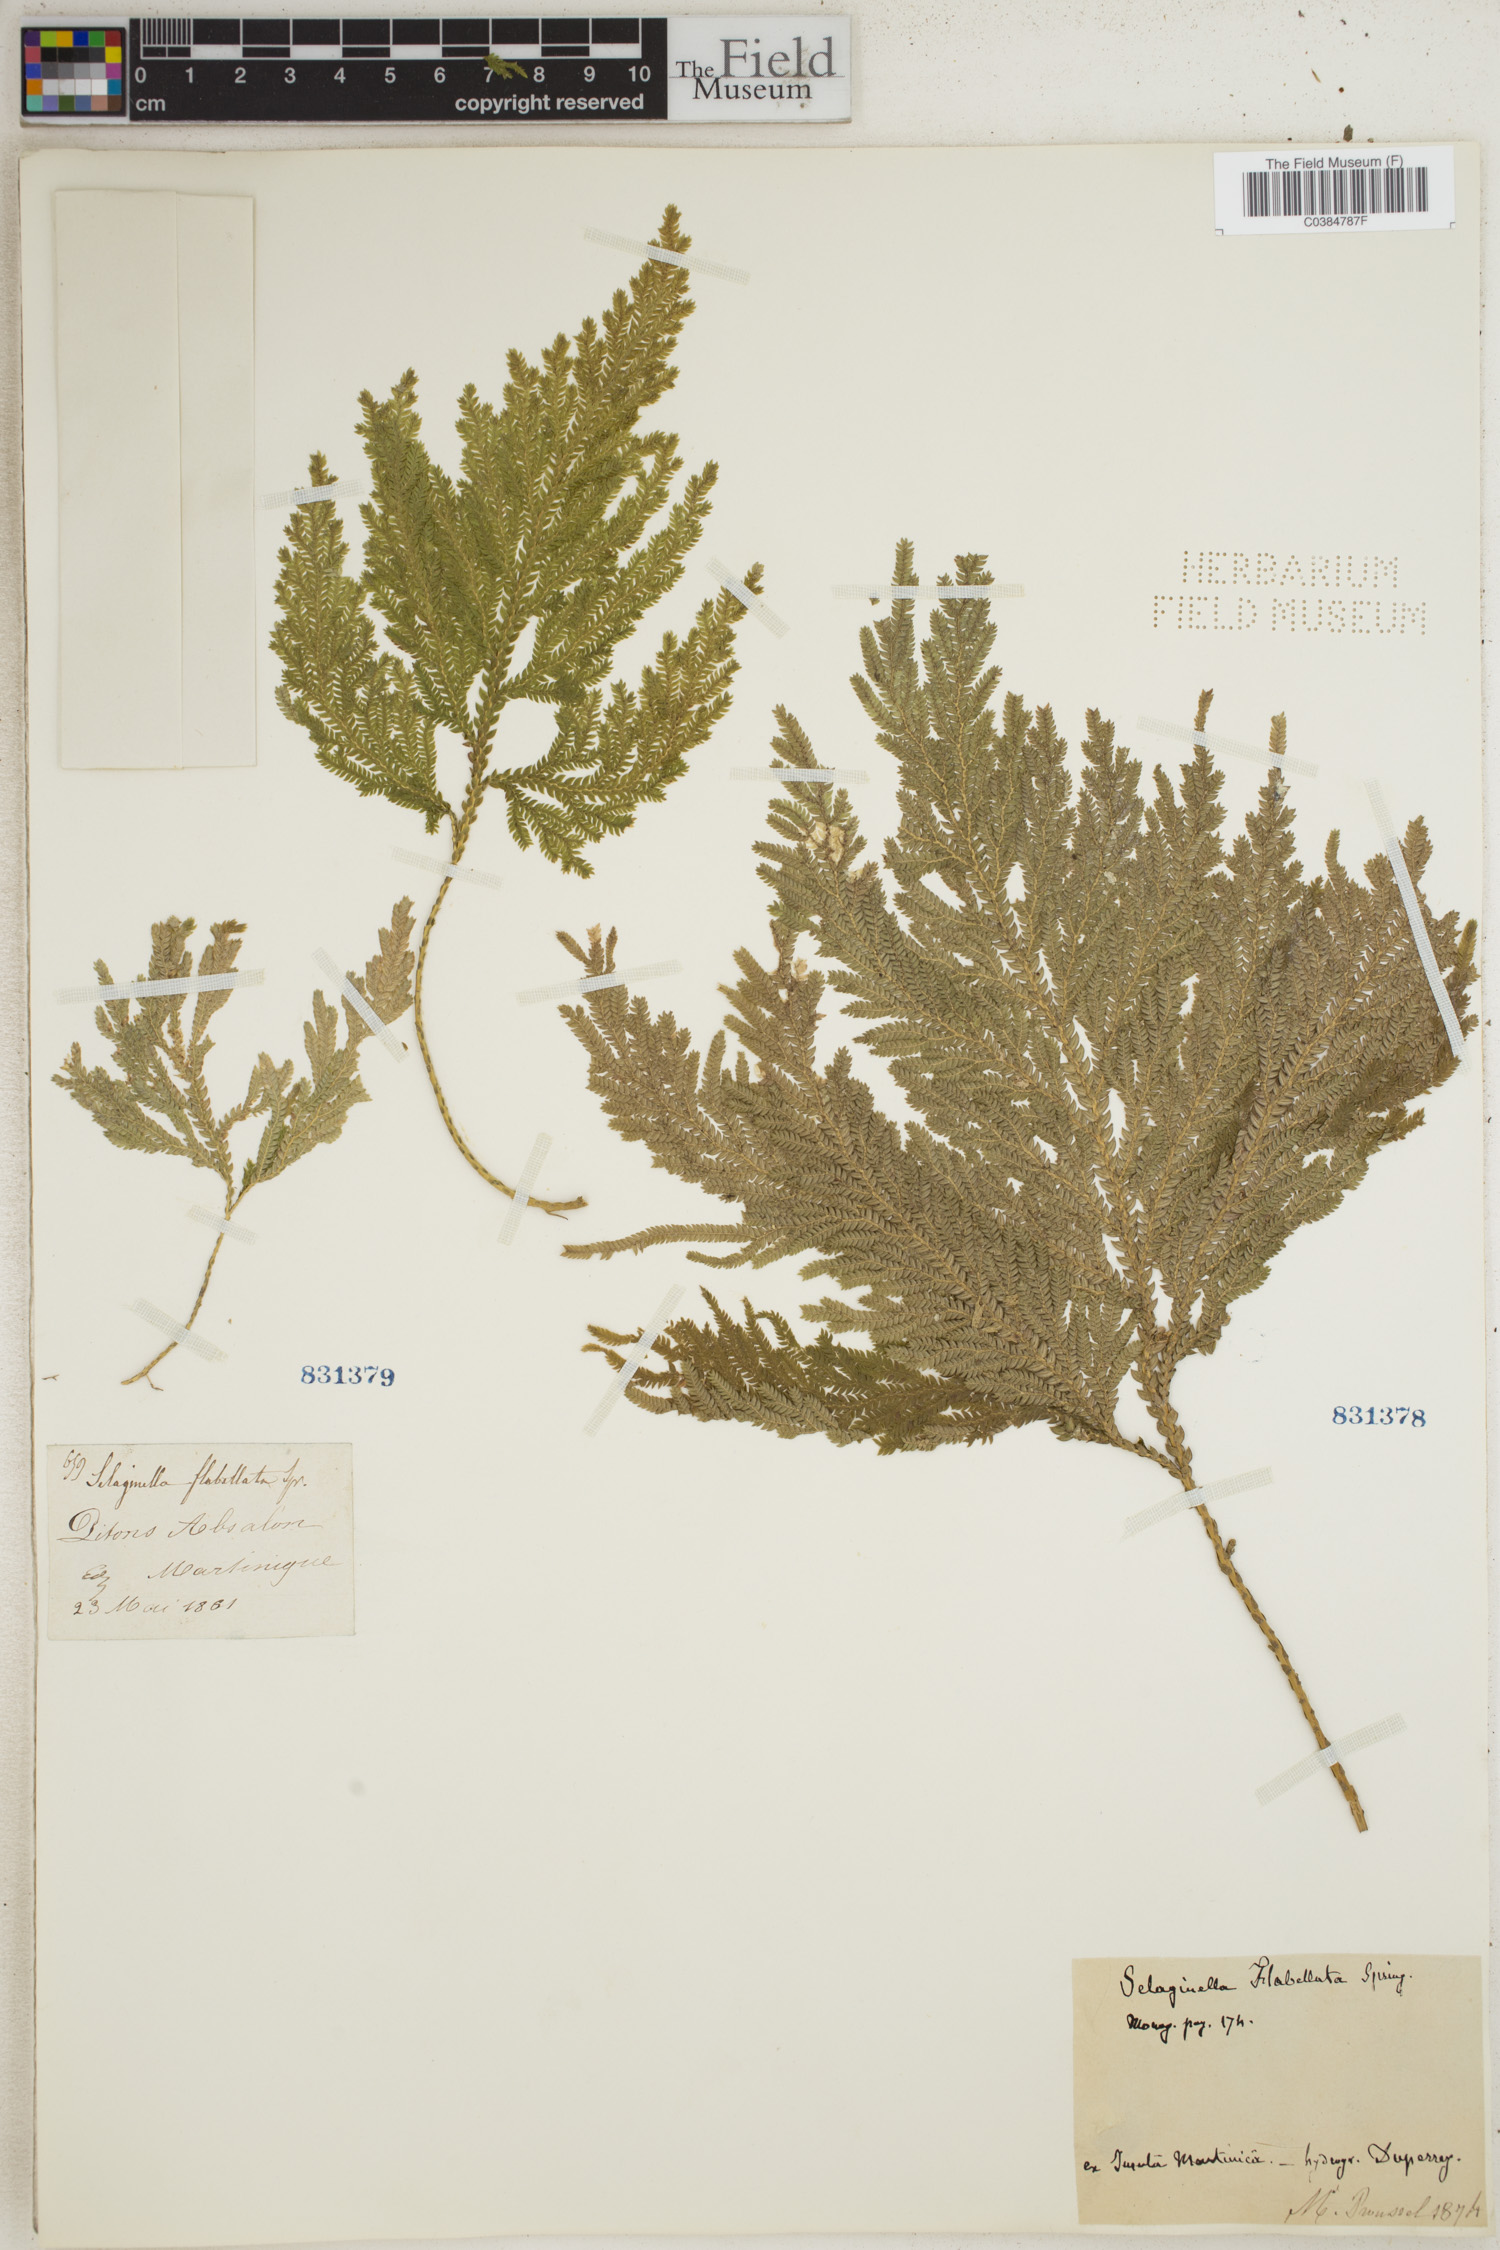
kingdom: Plantae
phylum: Tracheophyta
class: Lycopodiopsida
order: Selaginellales
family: Selaginellaceae
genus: Selaginella
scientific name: Selaginella flabellata
